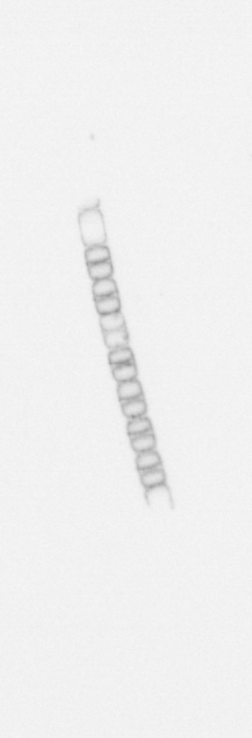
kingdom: Chromista
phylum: Ochrophyta
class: Bacillariophyceae
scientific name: Bacillariophyceae
